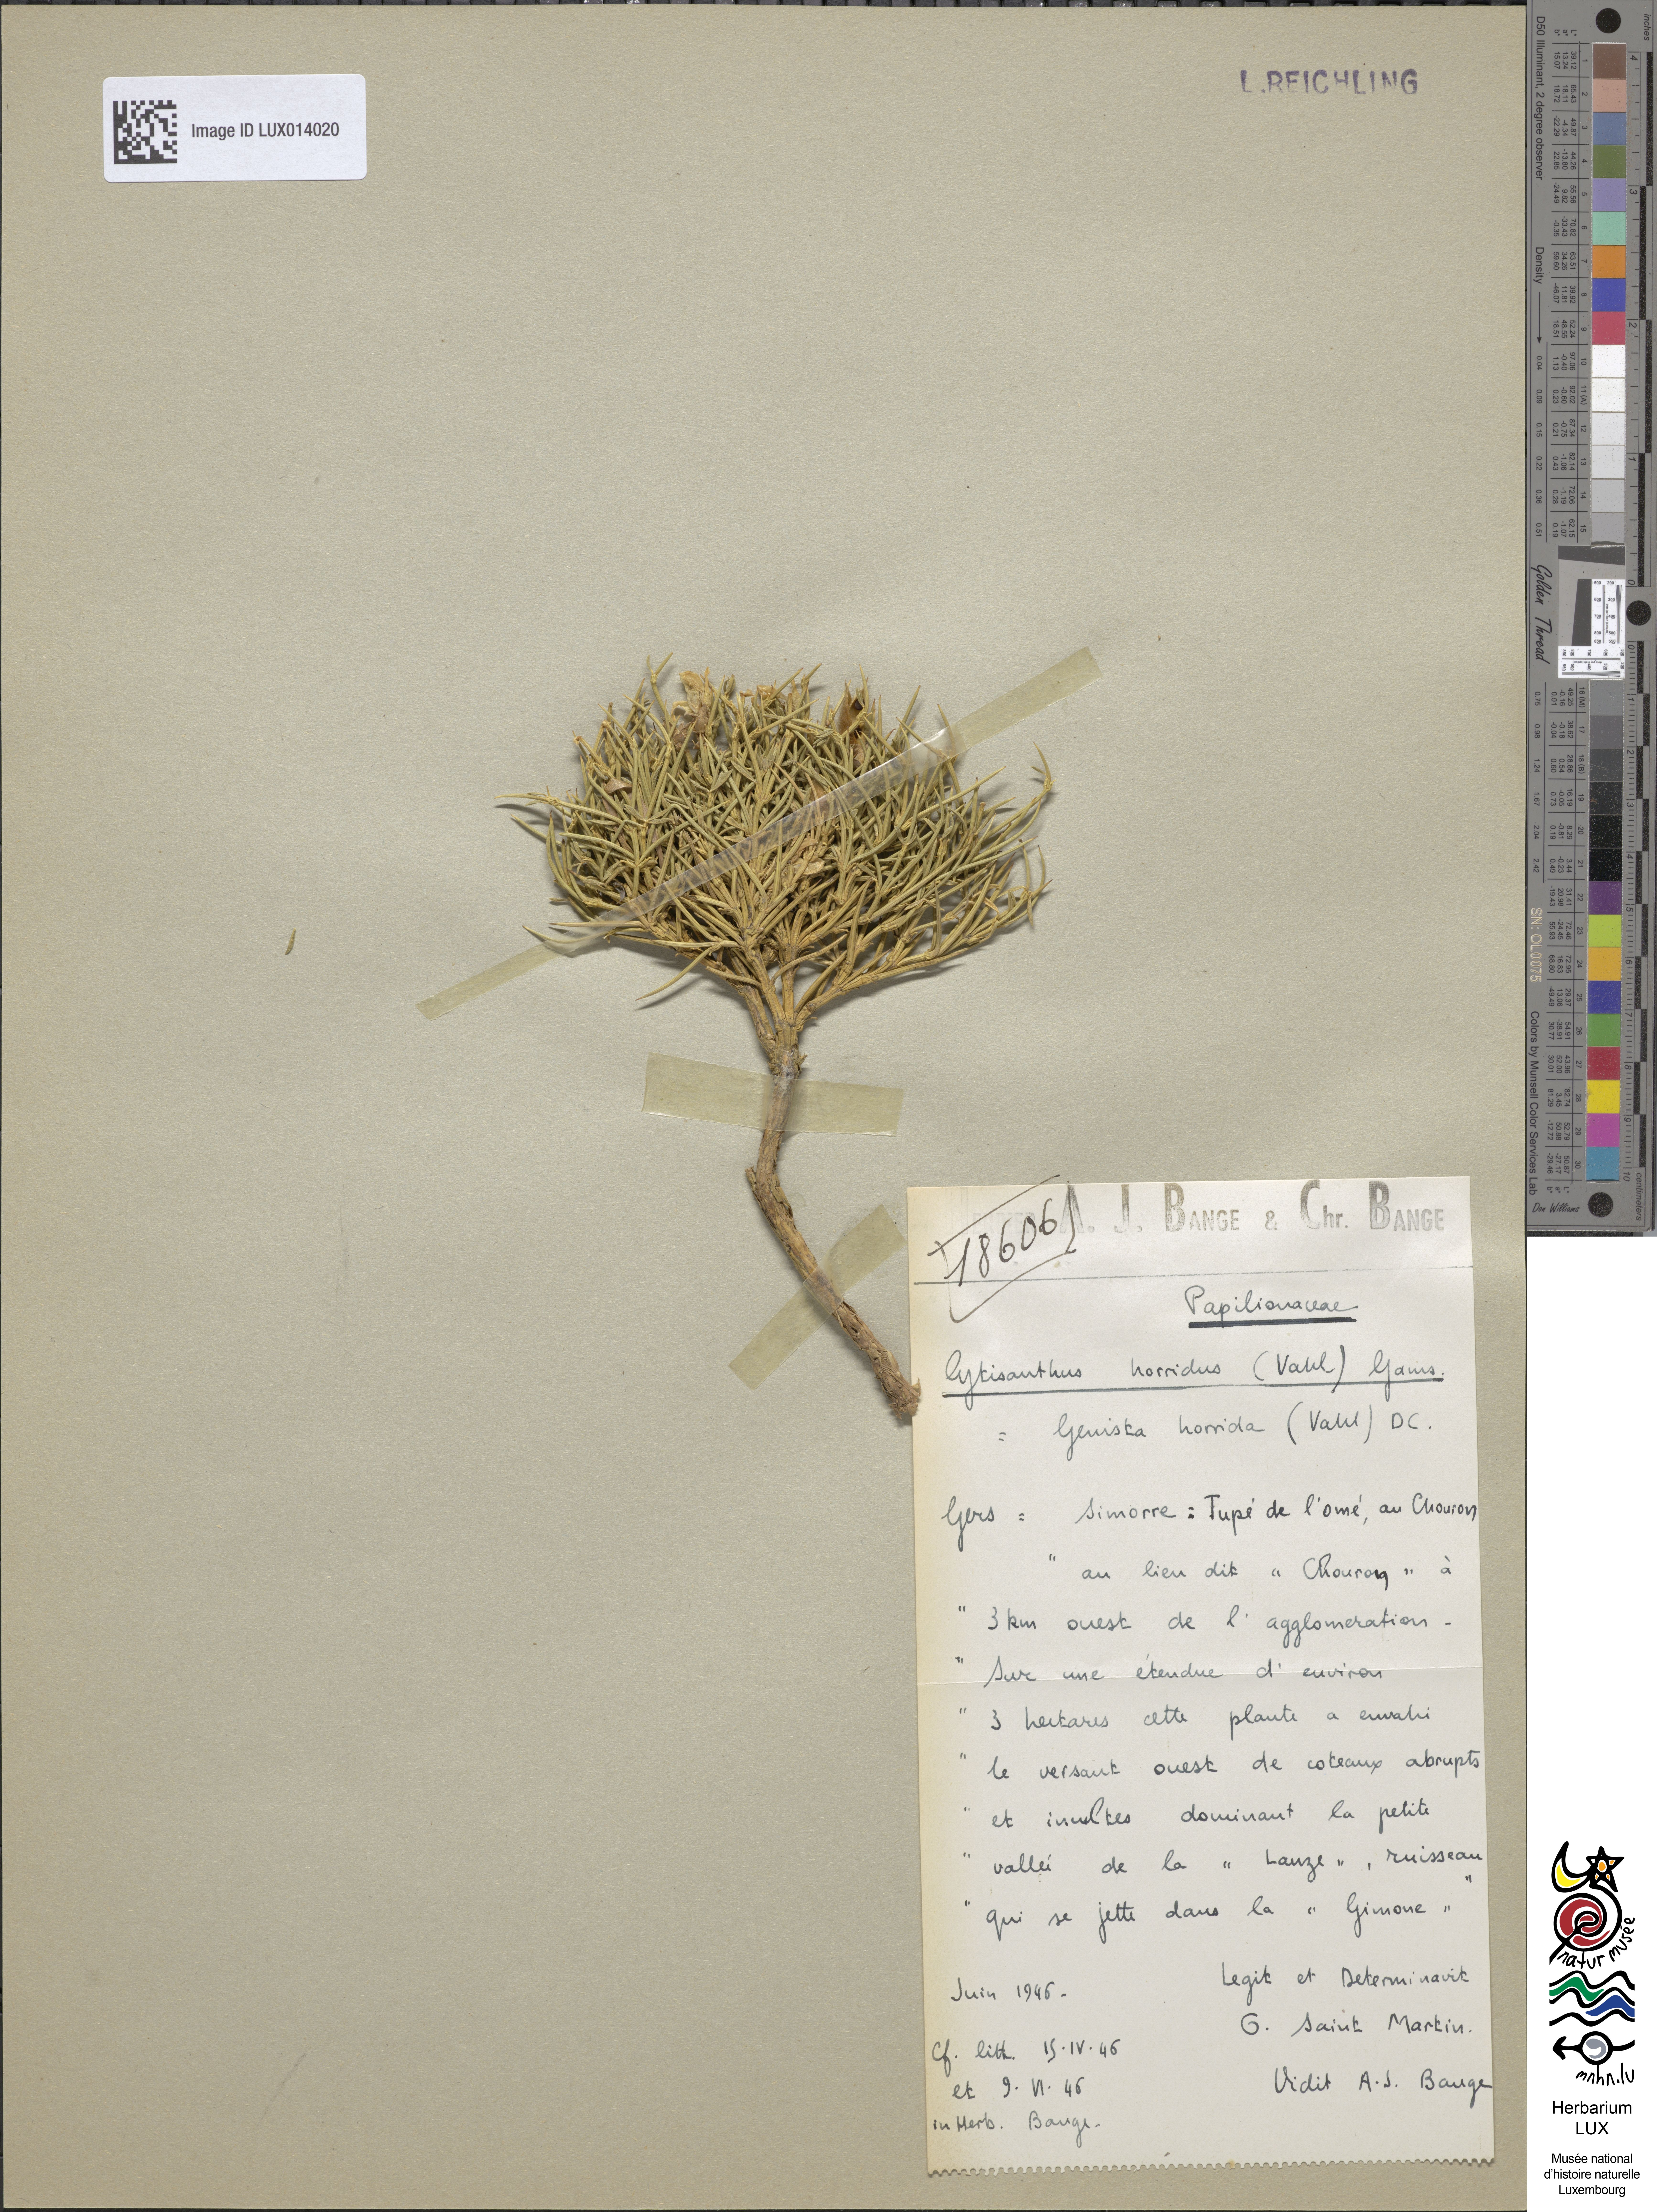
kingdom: Plantae
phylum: Tracheophyta
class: Magnoliopsida
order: Fabales
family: Fabaceae
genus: Echinospartum
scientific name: Echinospartum horridum
